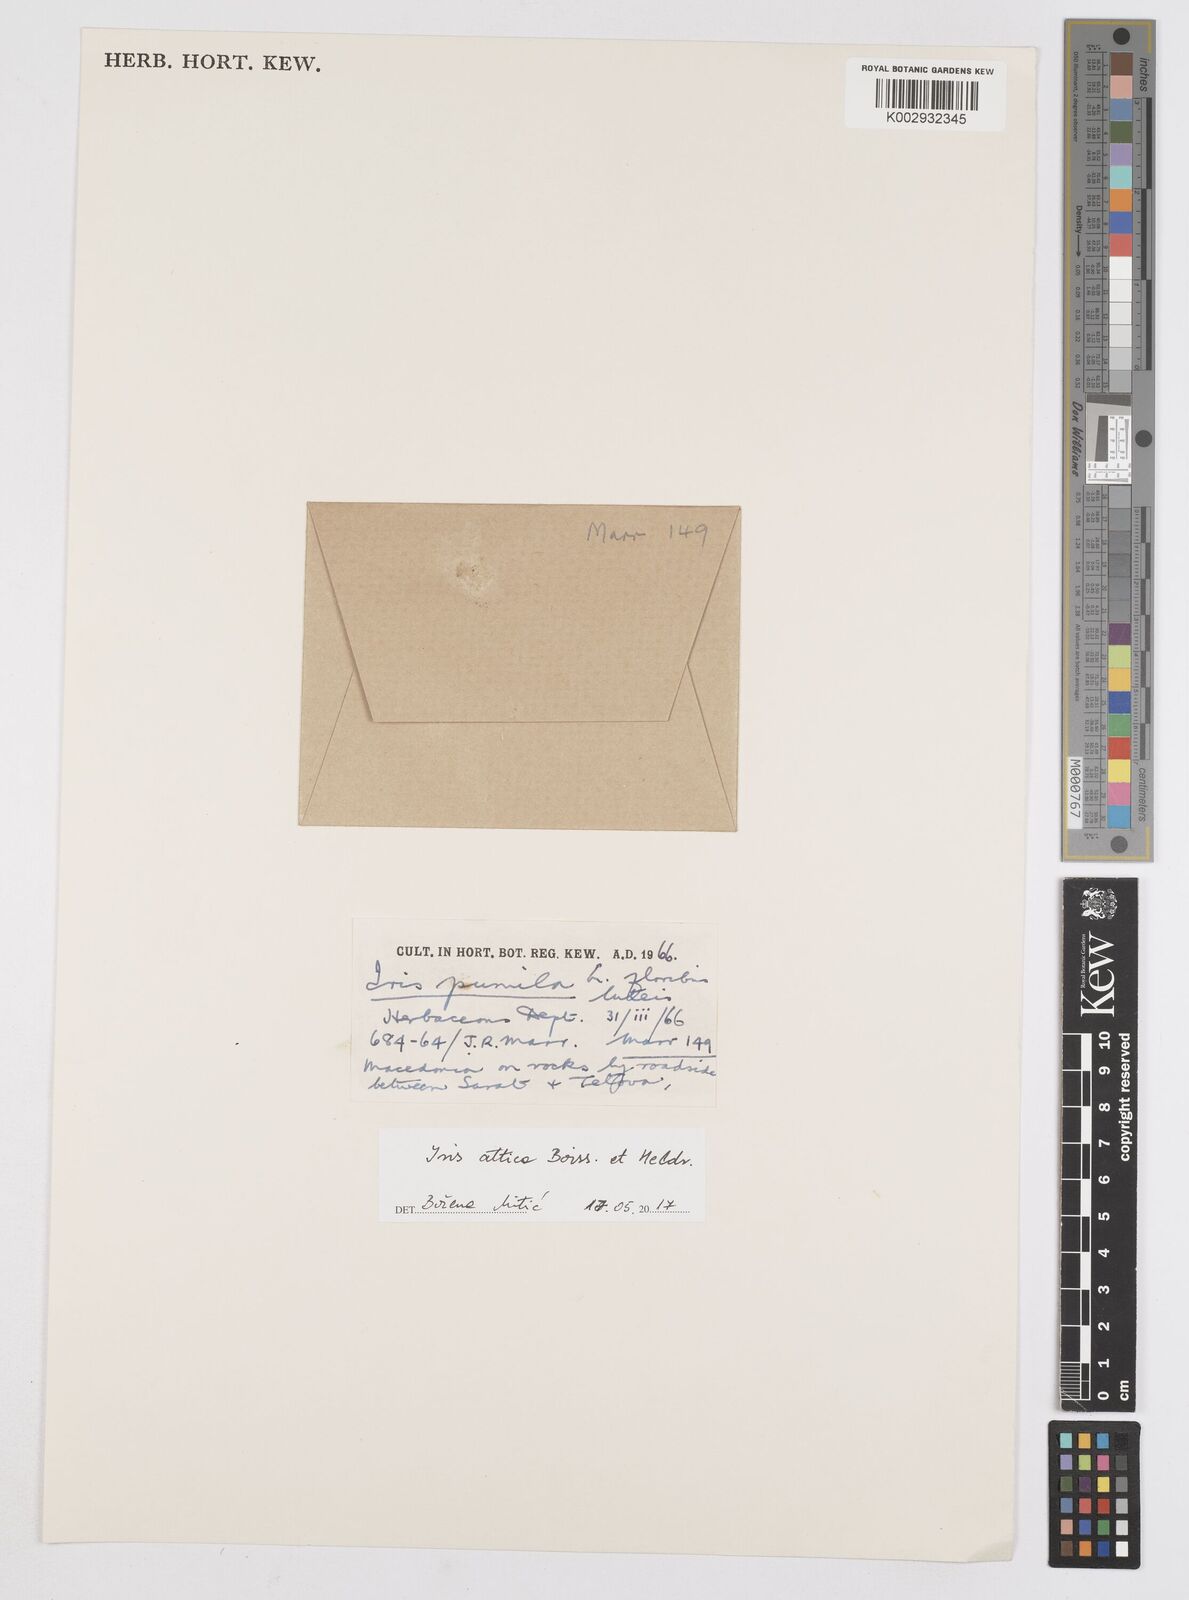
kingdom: Plantae
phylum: Tracheophyta
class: Liliopsida
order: Asparagales
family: Iridaceae
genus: Iris
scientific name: Iris pumila
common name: Dwarf iris
